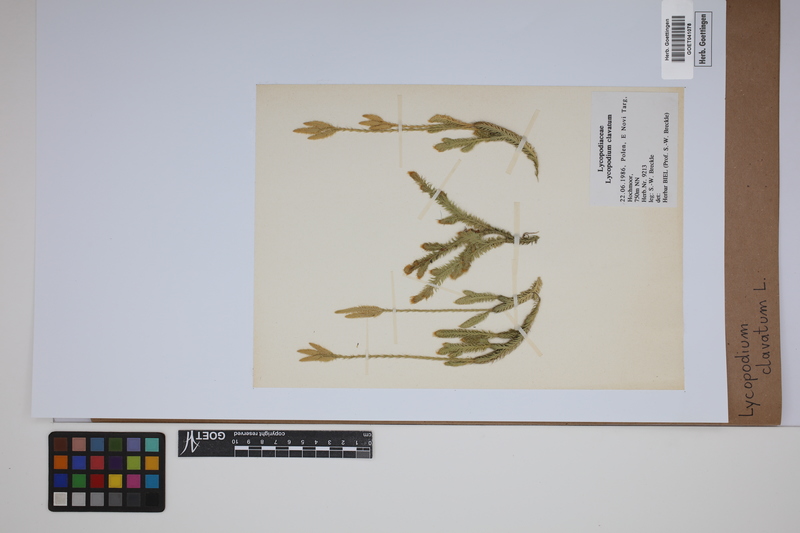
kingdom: Plantae
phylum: Tracheophyta
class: Lycopodiopsida
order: Lycopodiales
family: Lycopodiaceae
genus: Lycopodium
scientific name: Lycopodium clavatum
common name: Stag's-horn clubmoss
